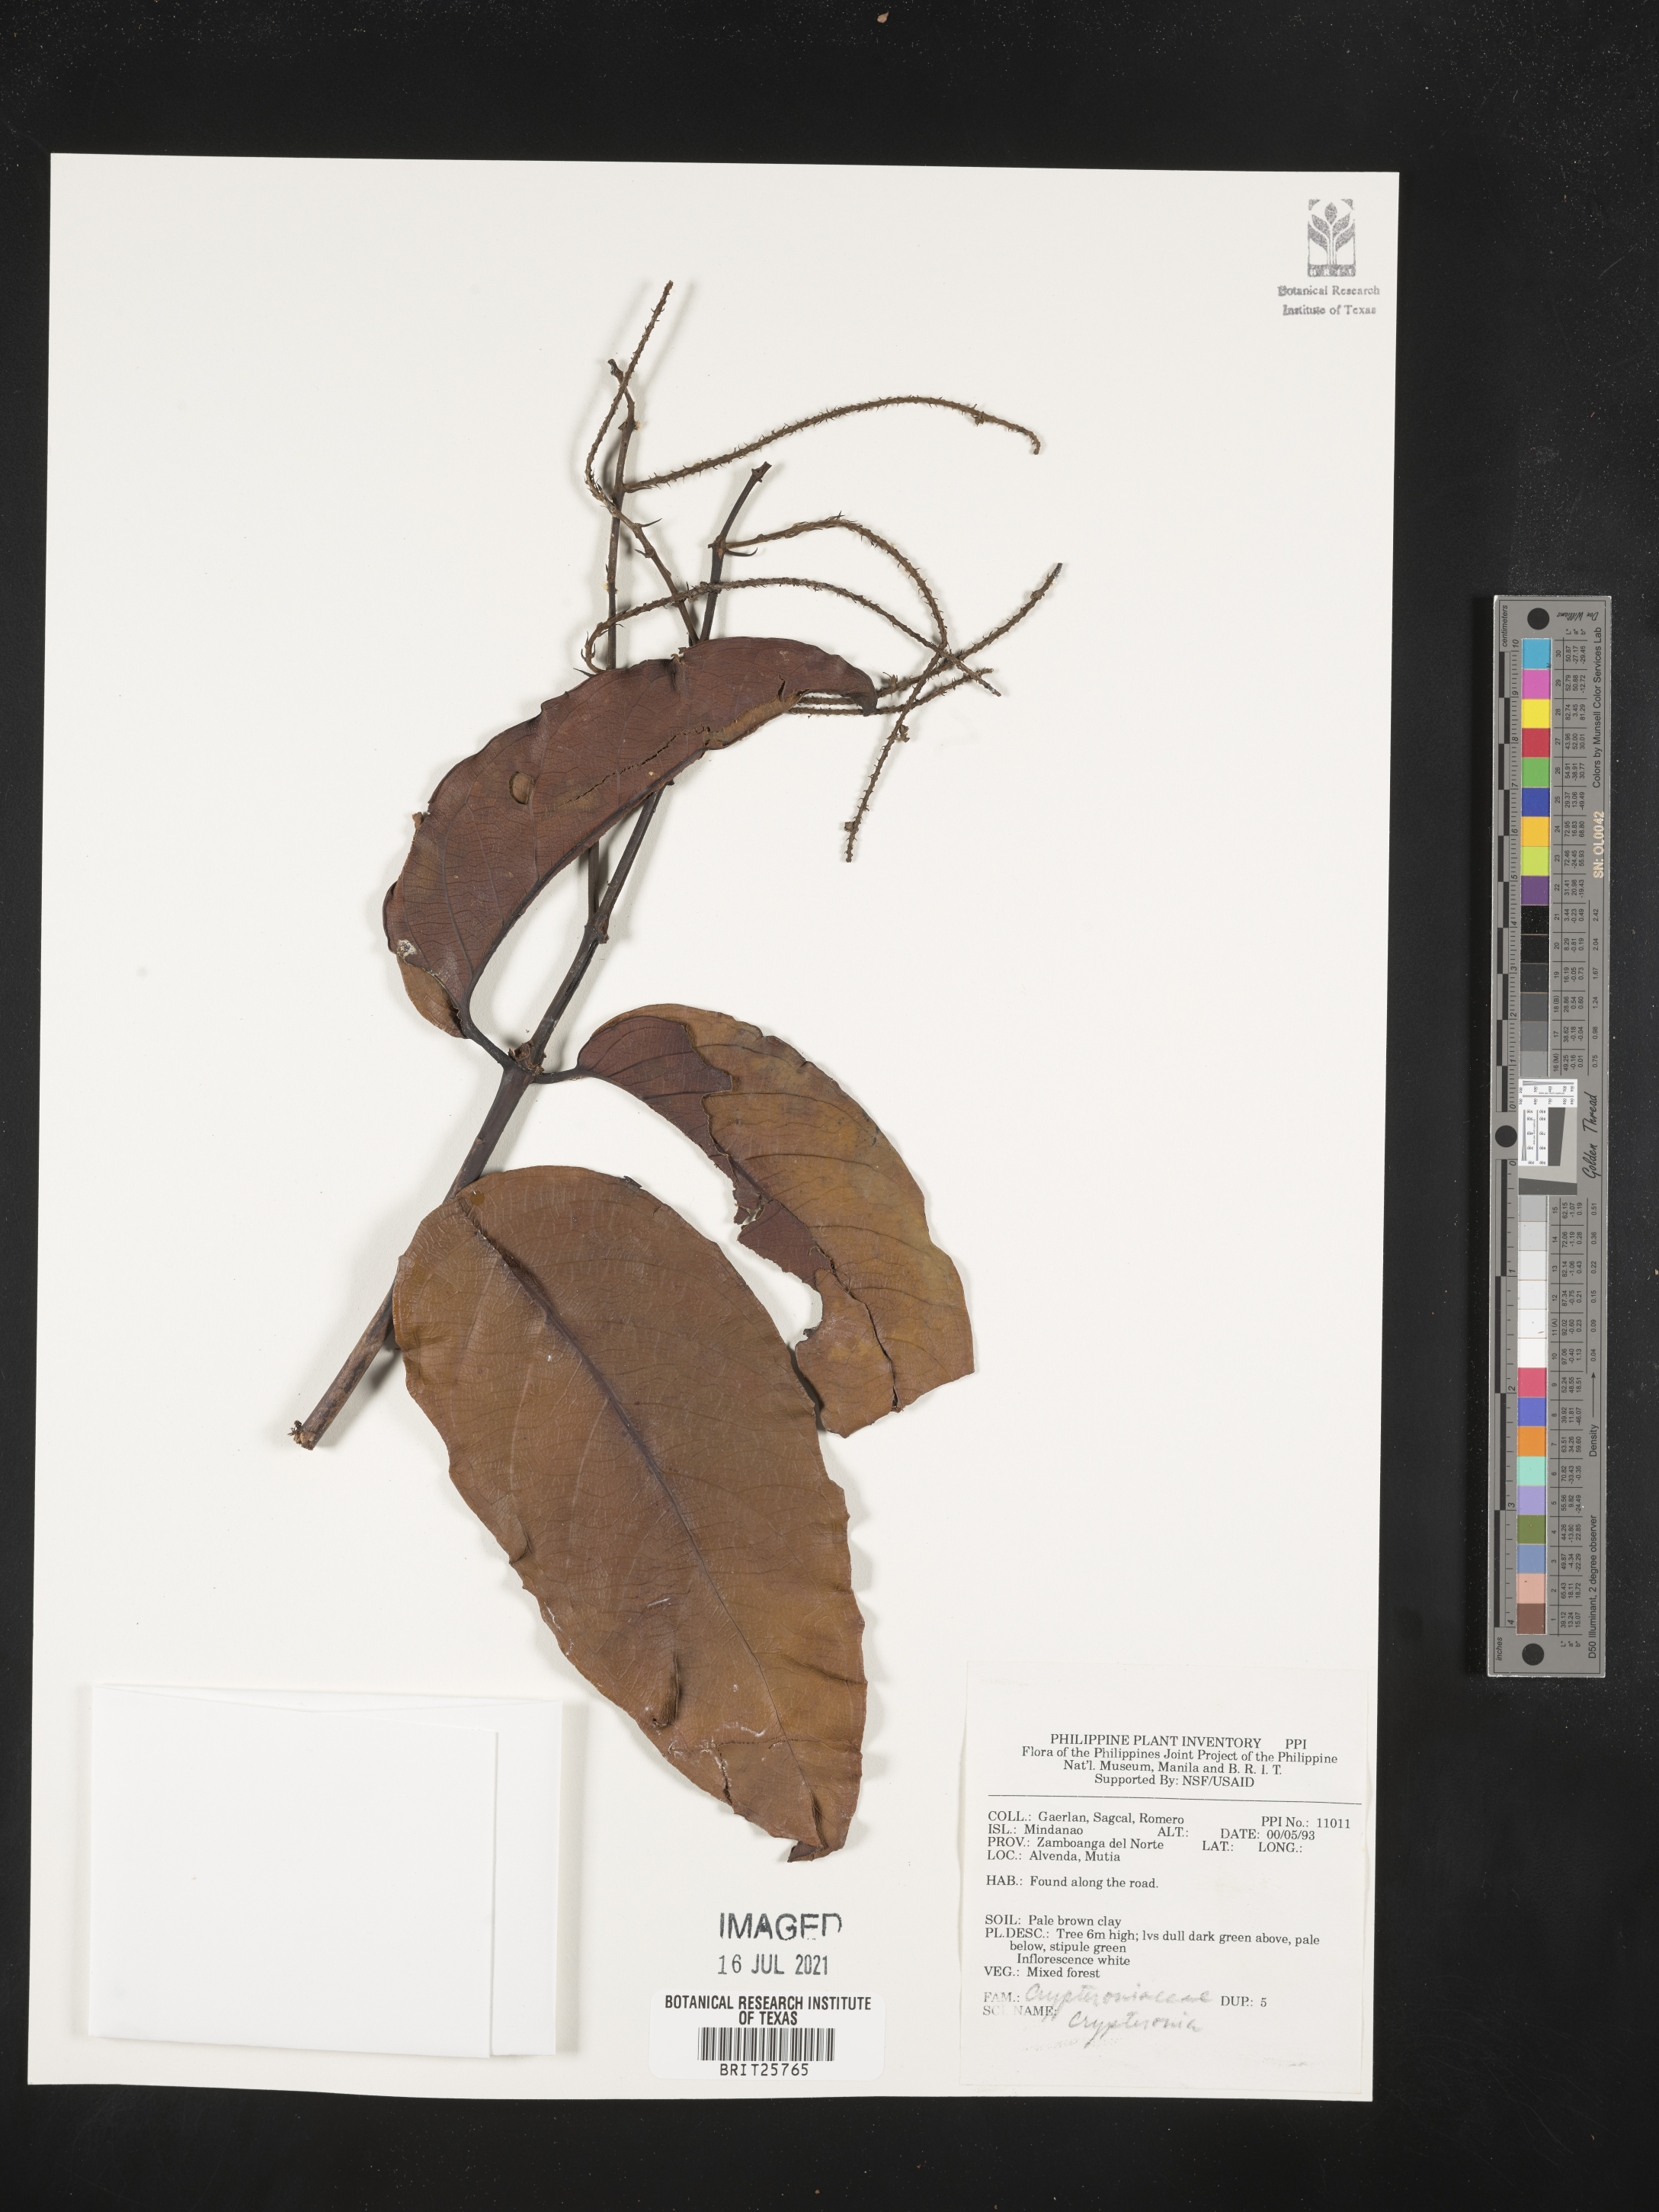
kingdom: Plantae
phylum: Tracheophyta
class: Magnoliopsida
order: Myrtales
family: Crypteroniaceae
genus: Crypteronia
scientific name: Crypteronia
